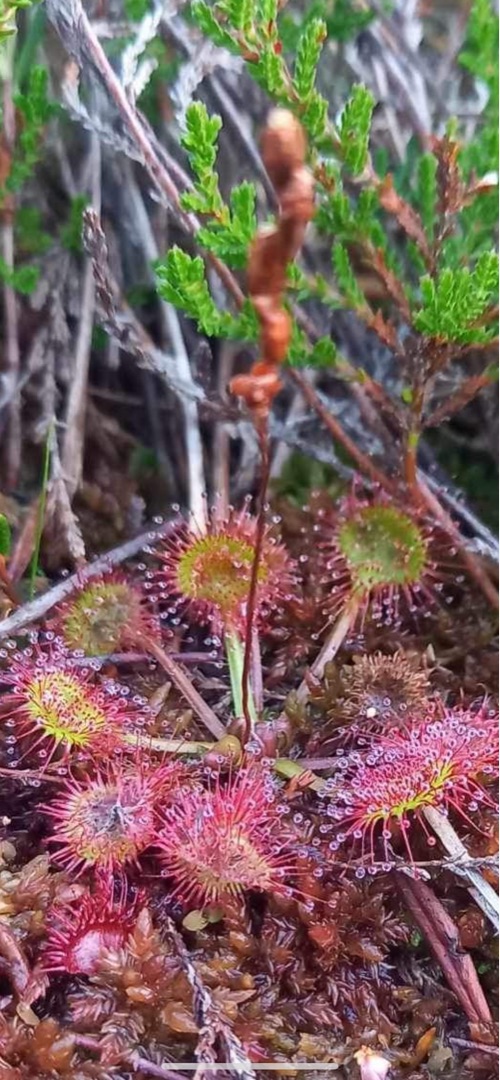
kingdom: Plantae
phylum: Tracheophyta
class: Magnoliopsida
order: Caryophyllales
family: Droseraceae
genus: Drosera
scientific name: Drosera rotundifolia
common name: Rundbladet soldug
